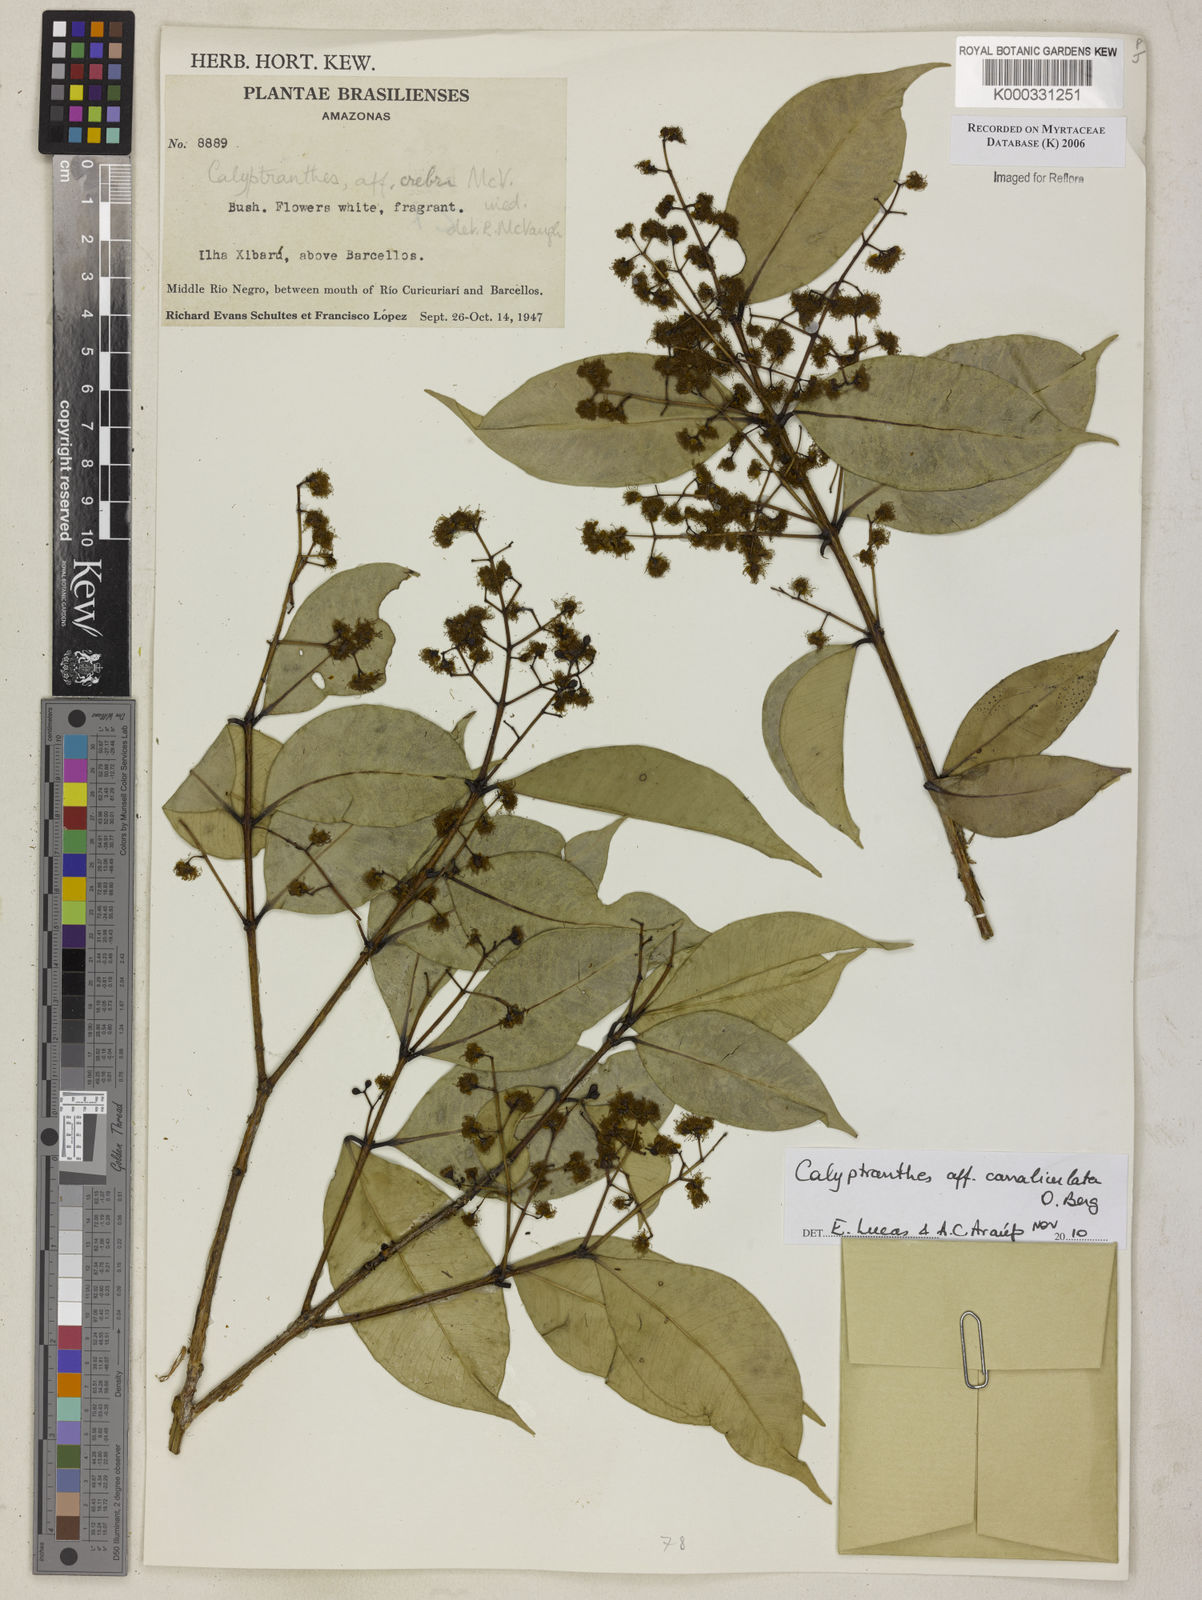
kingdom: Plantae
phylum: Tracheophyta
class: Magnoliopsida
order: Myrtales
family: Myrtaceae
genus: Calyptranthes
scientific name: Calyptranthes
